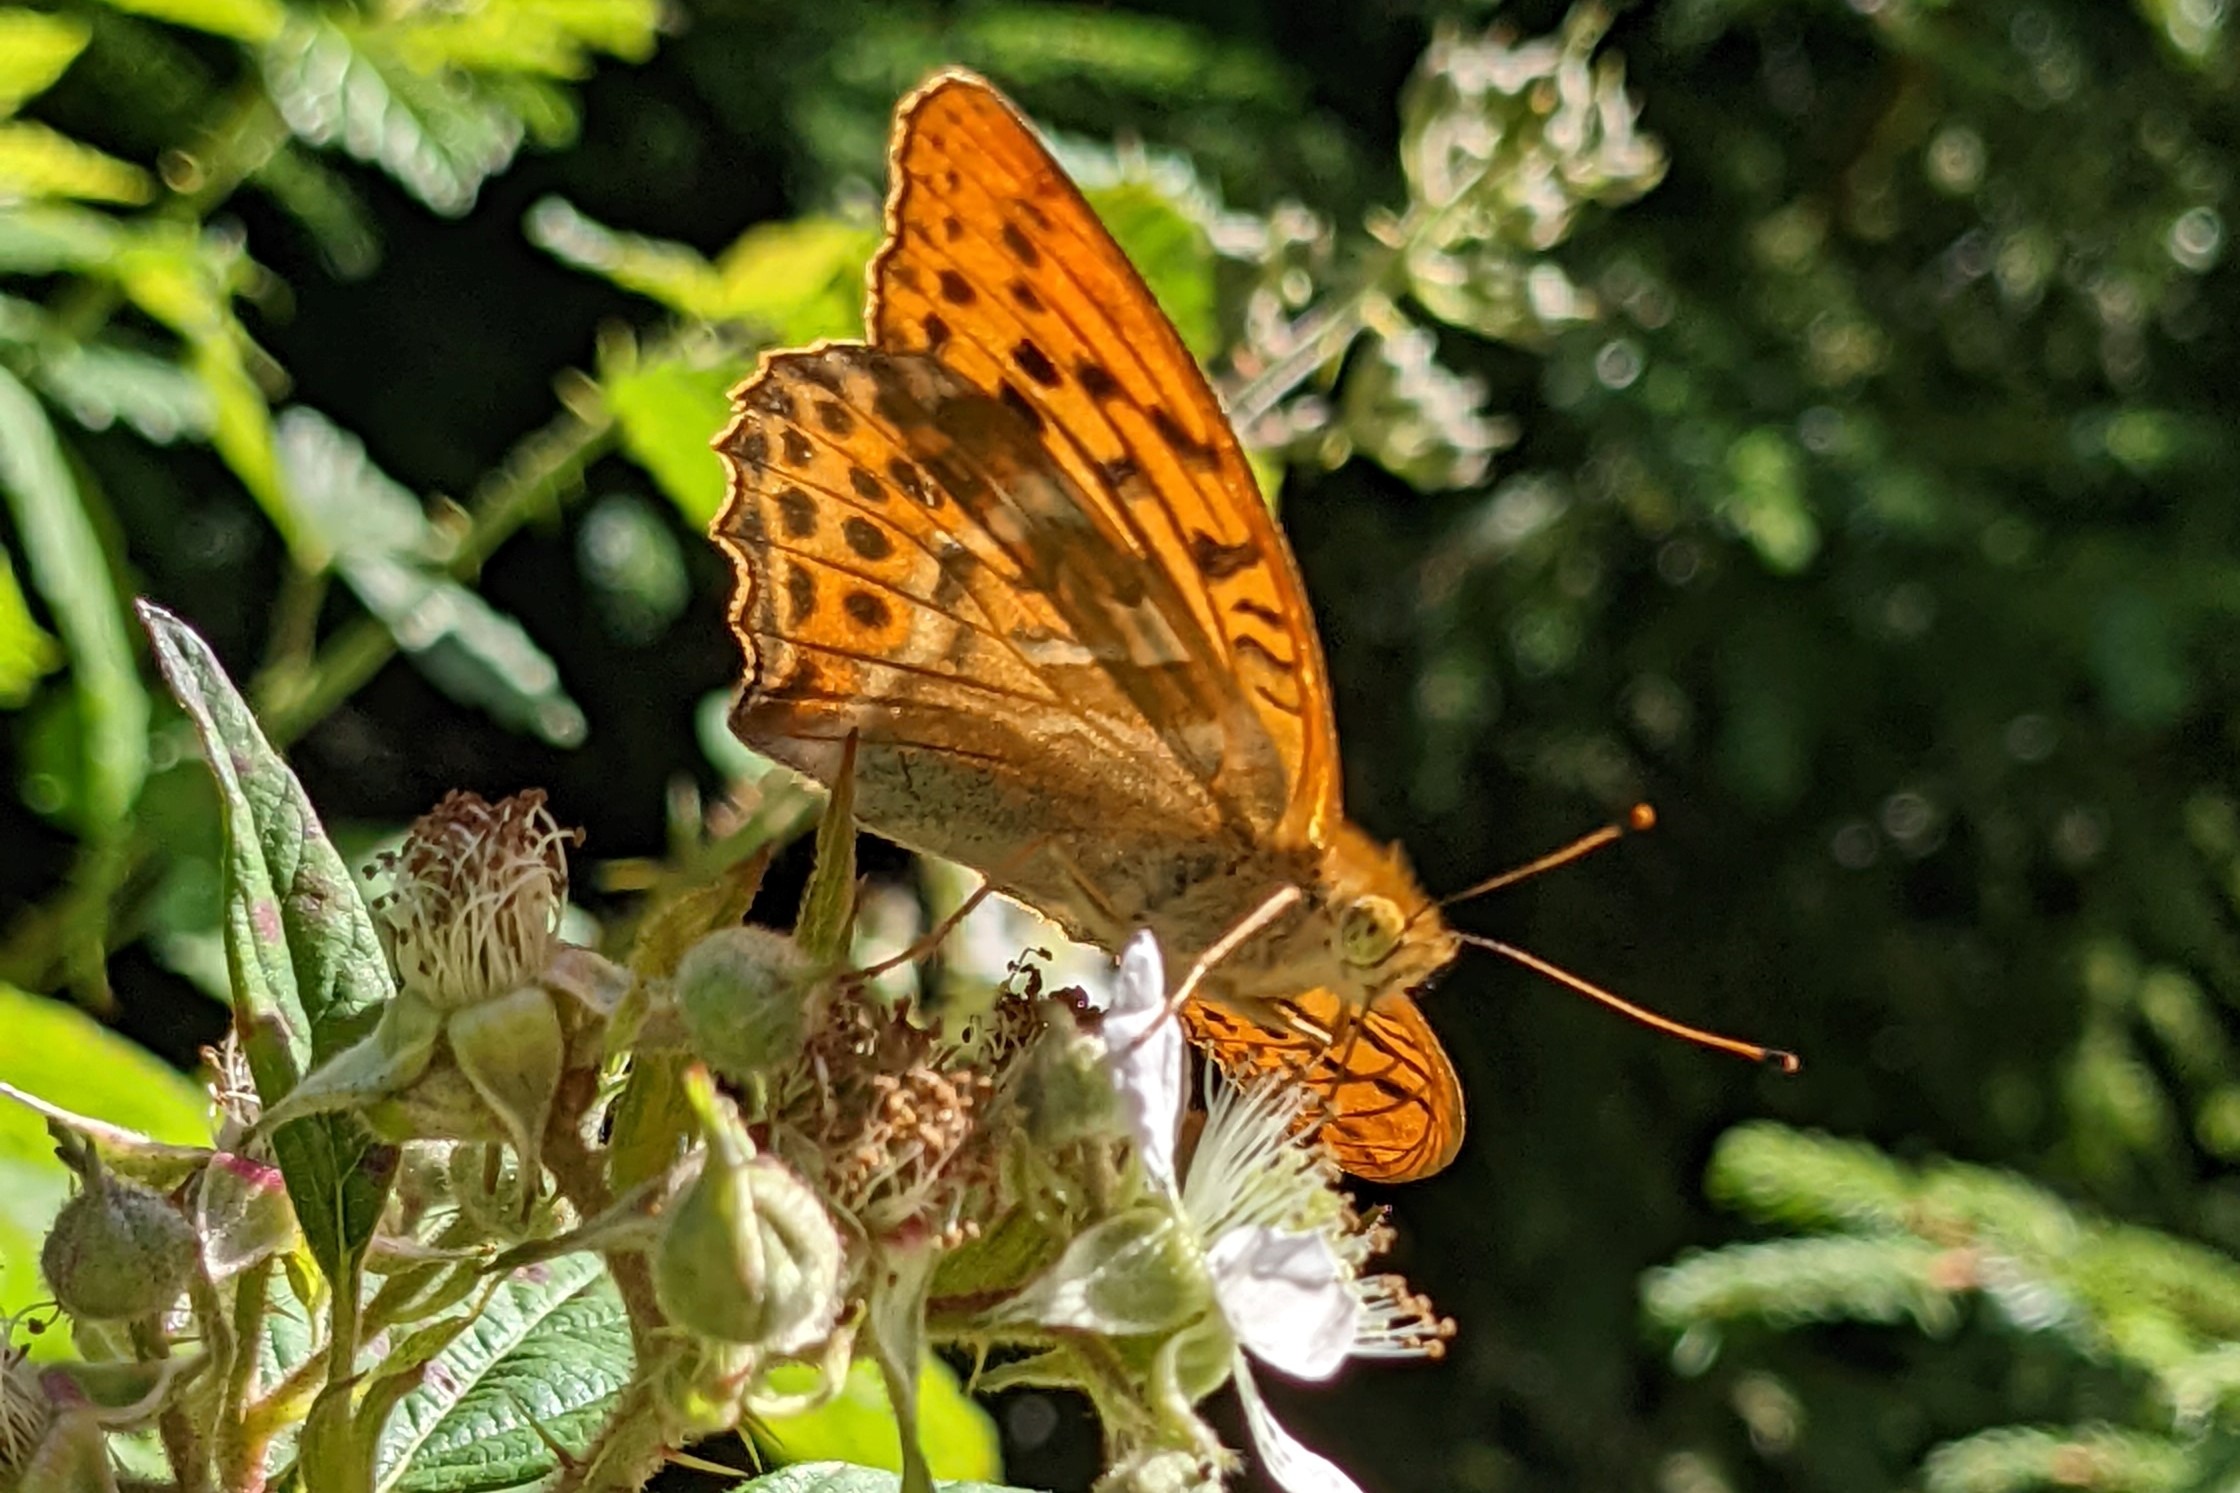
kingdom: Animalia
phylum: Arthropoda
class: Insecta
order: Lepidoptera
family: Nymphalidae
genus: Argynnis
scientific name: Argynnis paphia
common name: Kejserkåbe
